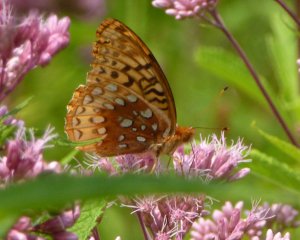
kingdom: Animalia
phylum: Arthropoda
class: Insecta
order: Lepidoptera
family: Nymphalidae
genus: Speyeria
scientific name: Speyeria cybele
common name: Great Spangled Fritillary
